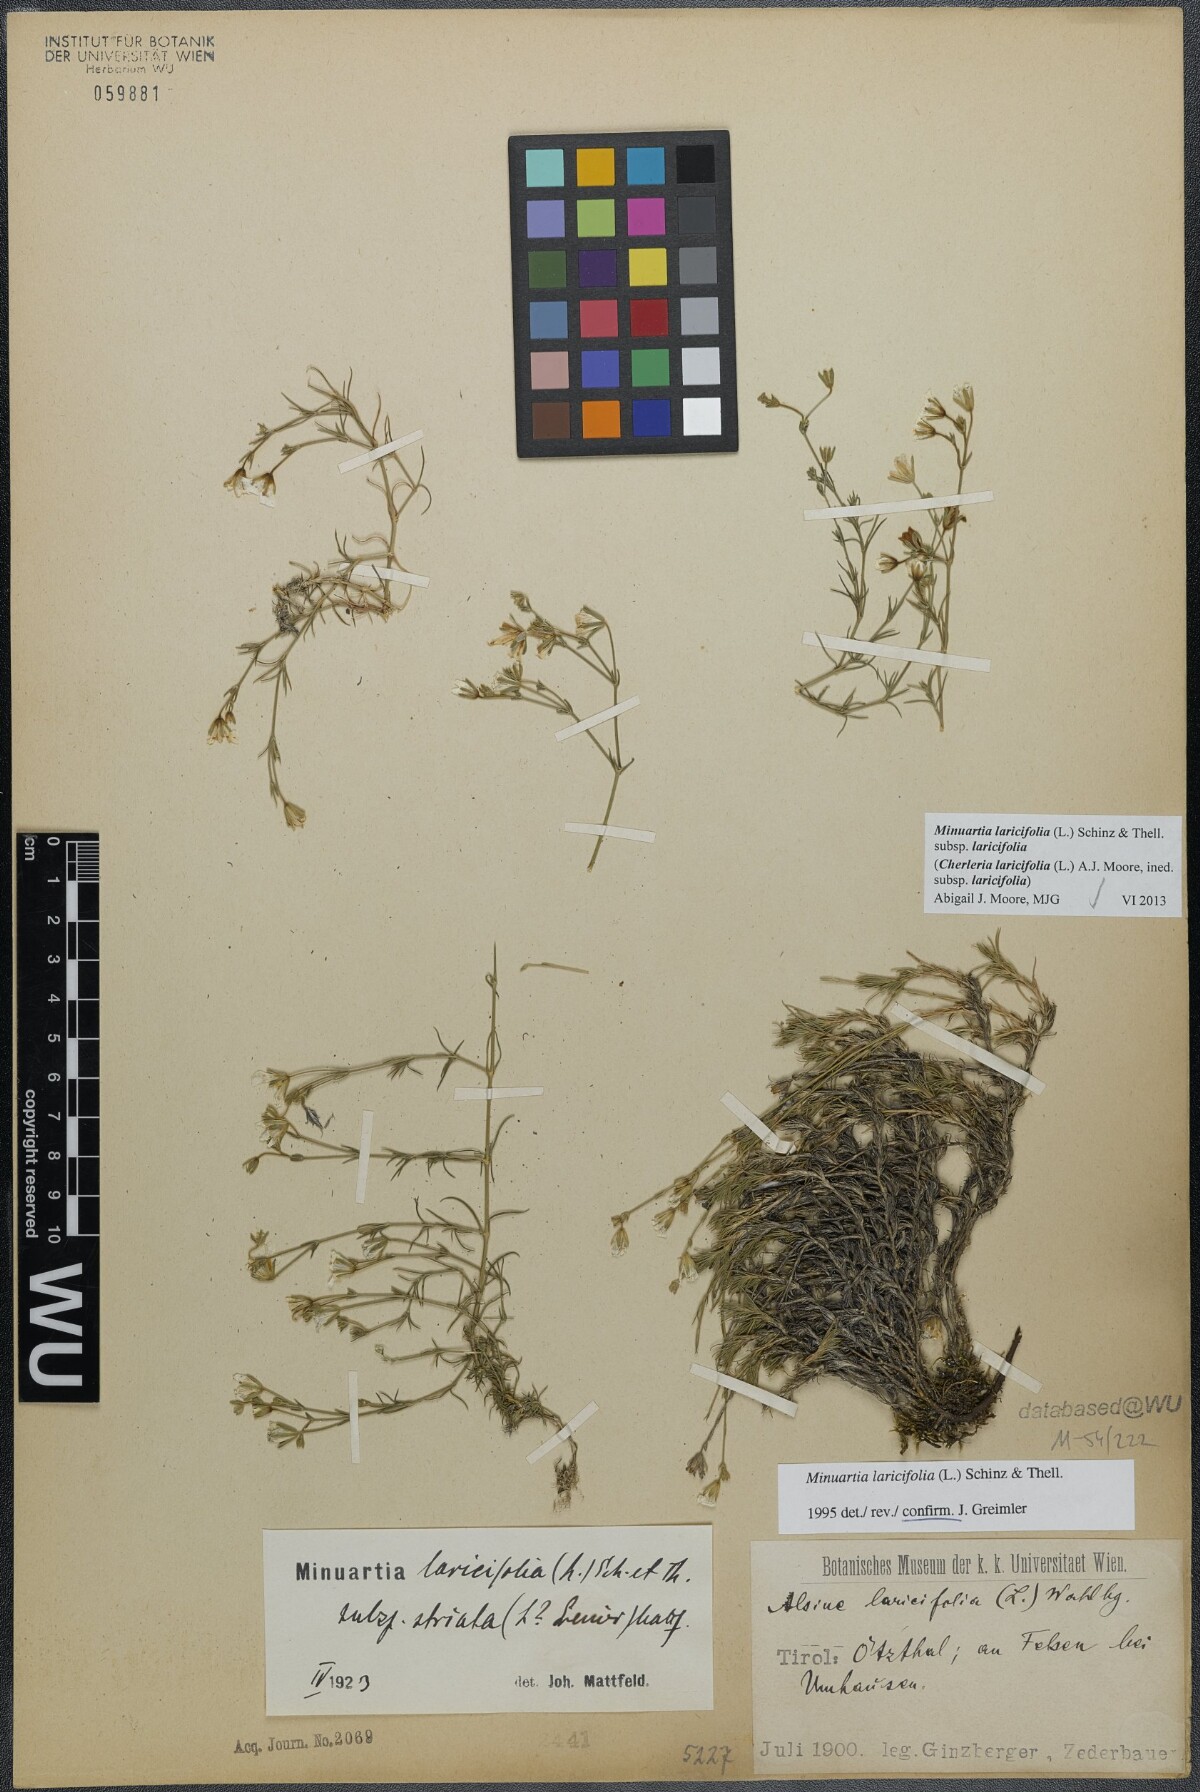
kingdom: Plantae
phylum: Tracheophyta
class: Magnoliopsida
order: Caryophyllales
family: Caryophyllaceae
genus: Cherleria
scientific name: Cherleria laricifolia
